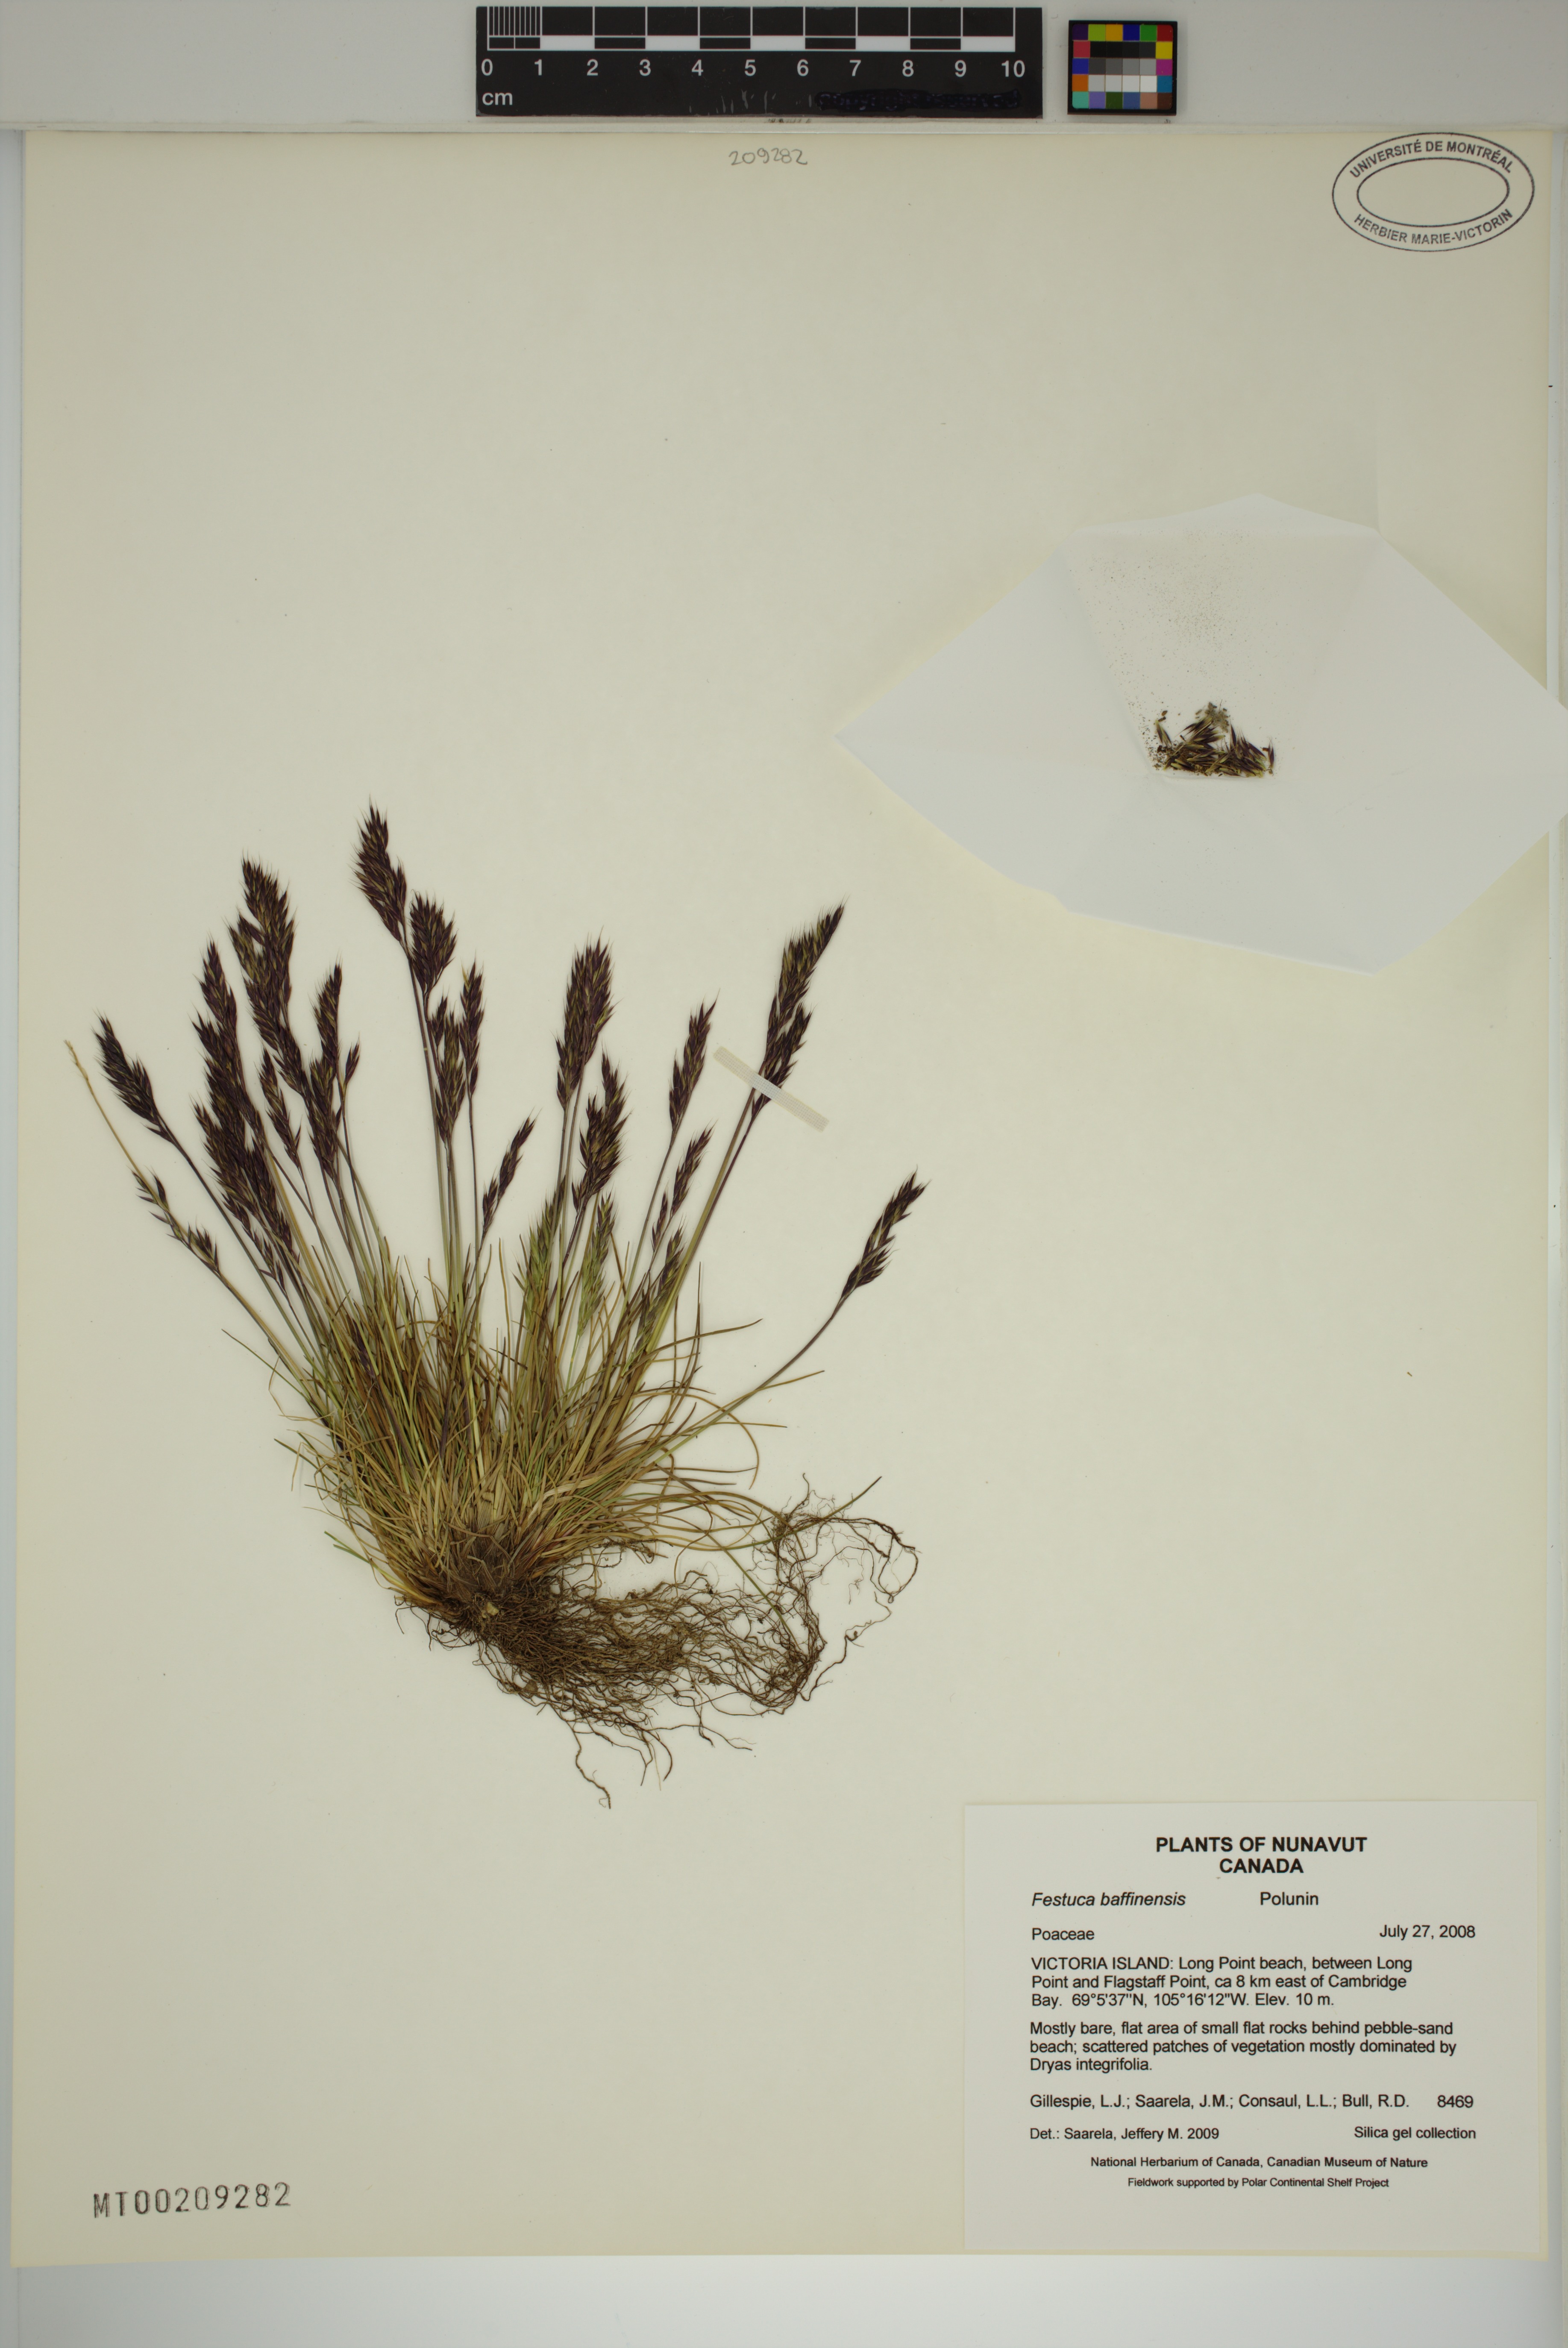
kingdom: Plantae
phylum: Tracheophyta
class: Liliopsida
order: Poales
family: Poaceae
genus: Festuca
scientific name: Festuca baffinensis
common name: Baffin island fescue
